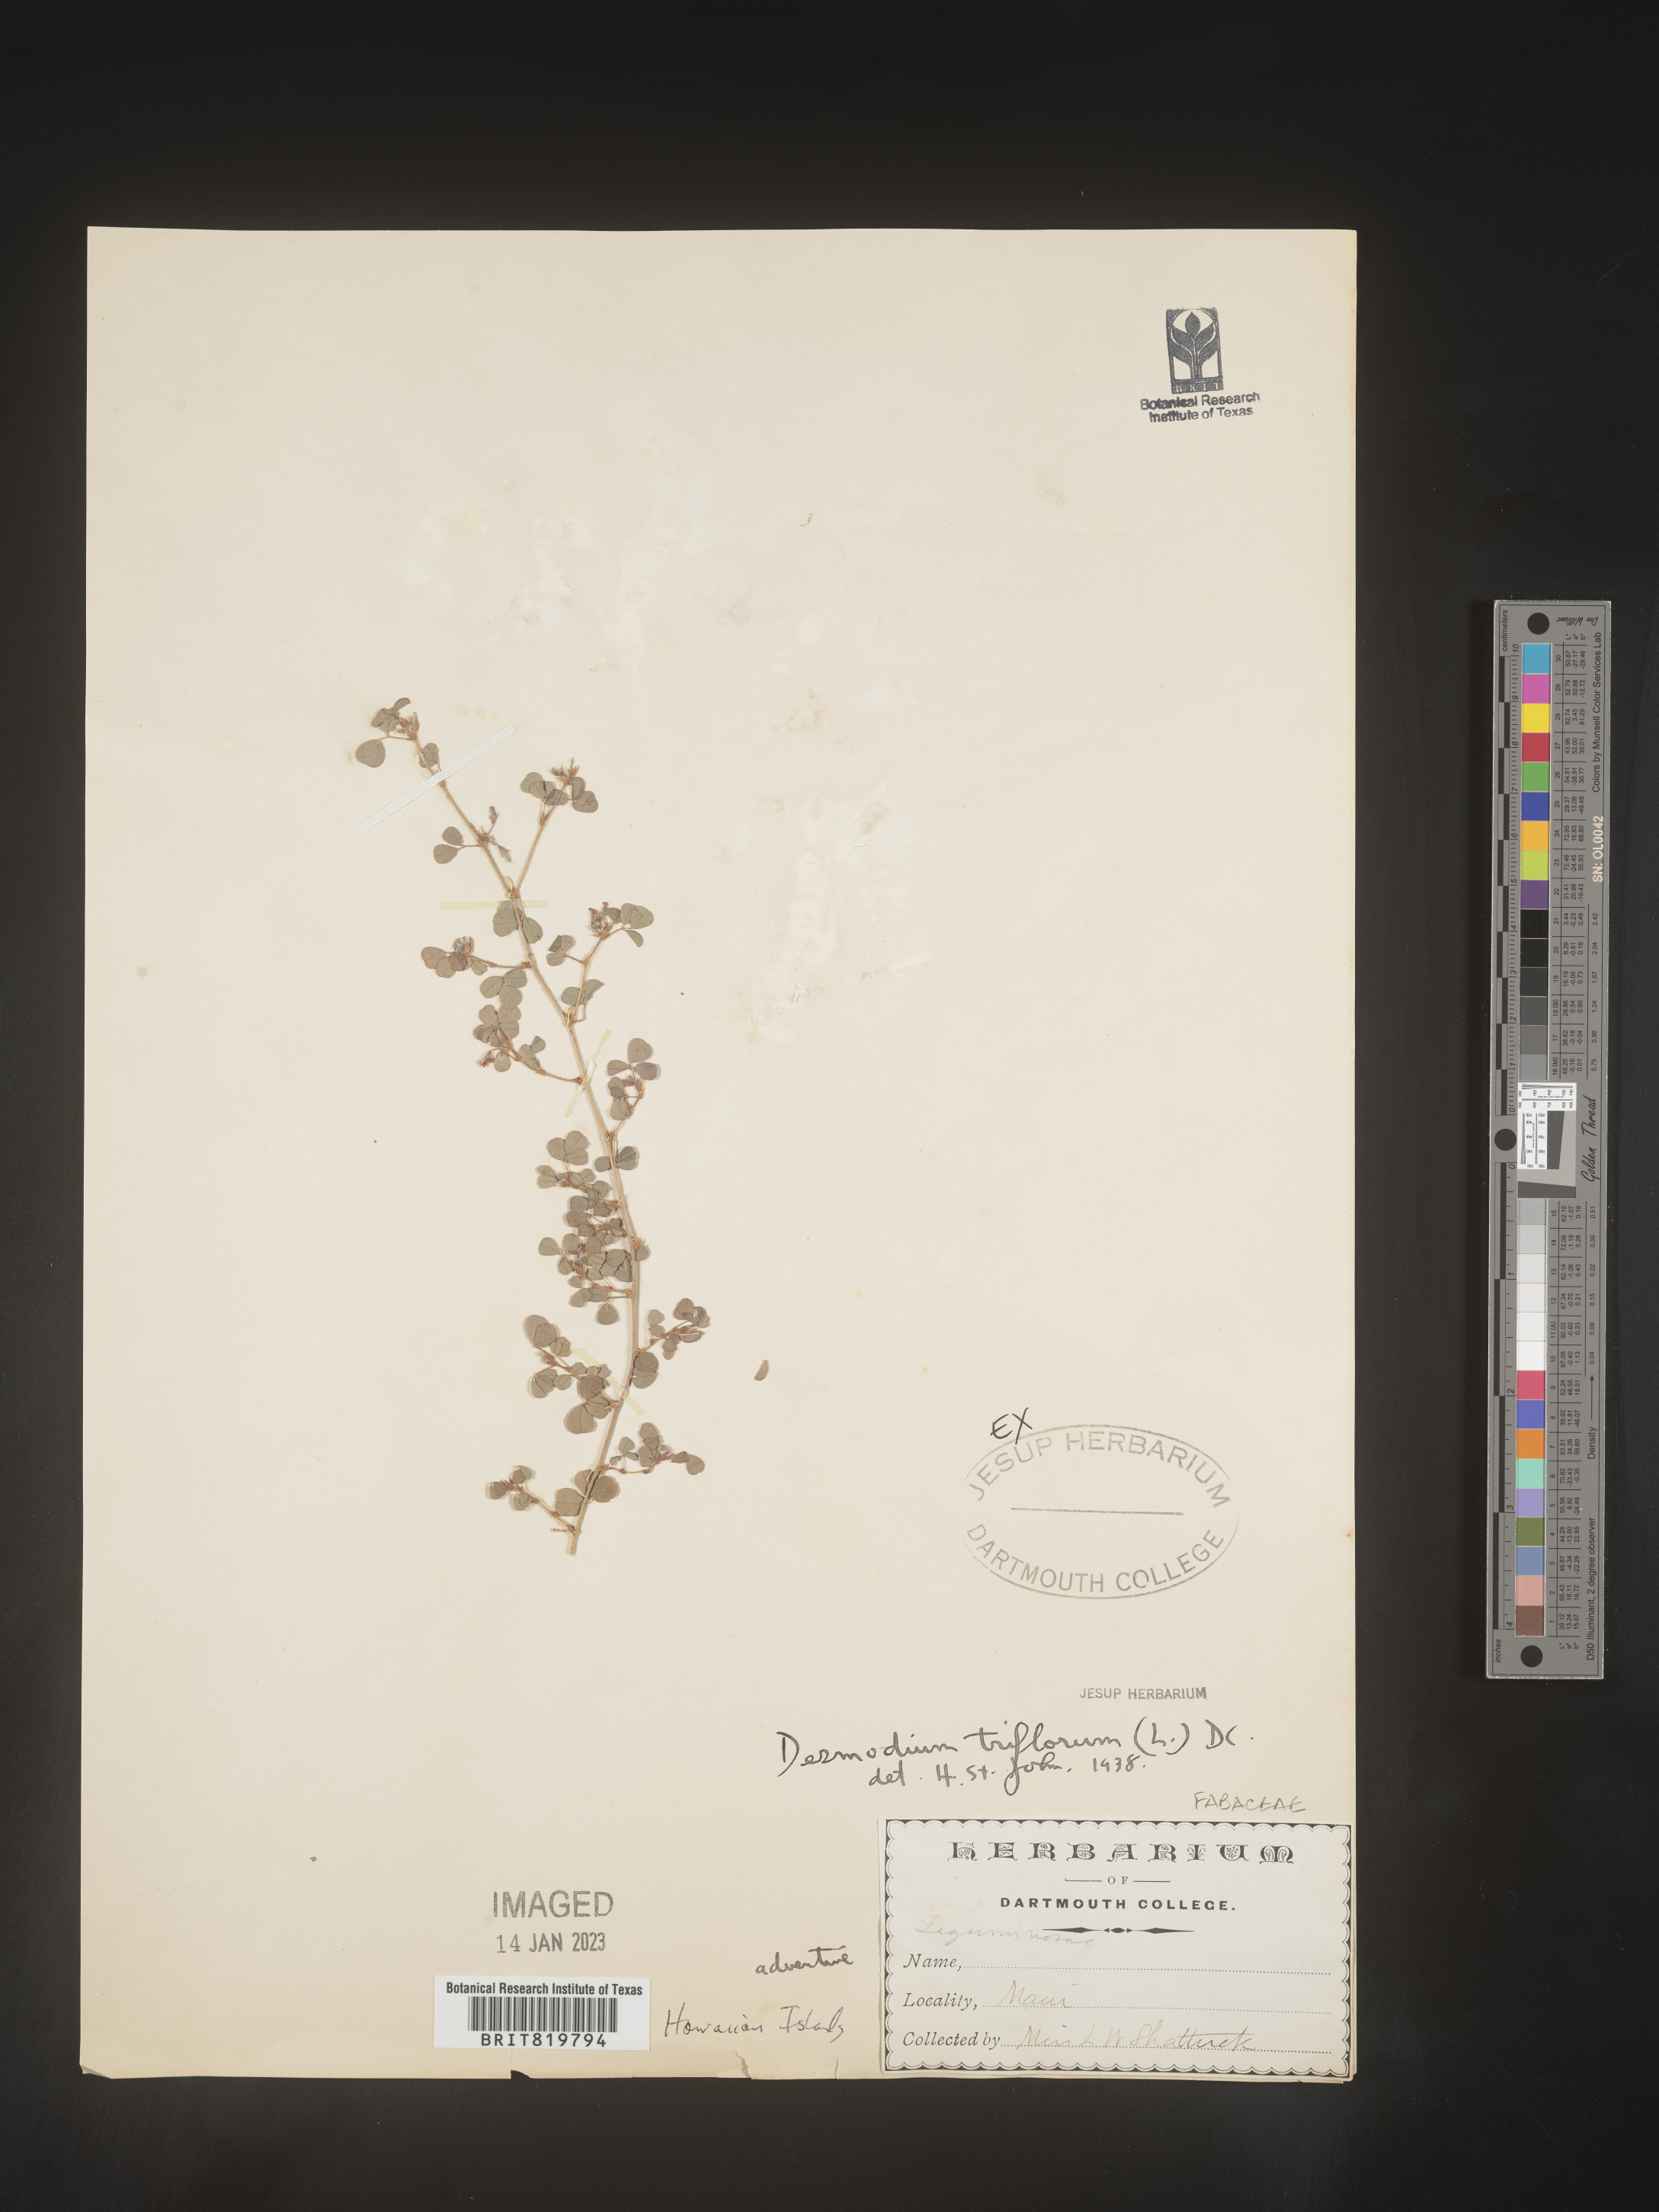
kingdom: Plantae
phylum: Tracheophyta
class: Magnoliopsida
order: Fabales
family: Fabaceae
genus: Desmodium
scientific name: Desmodium
